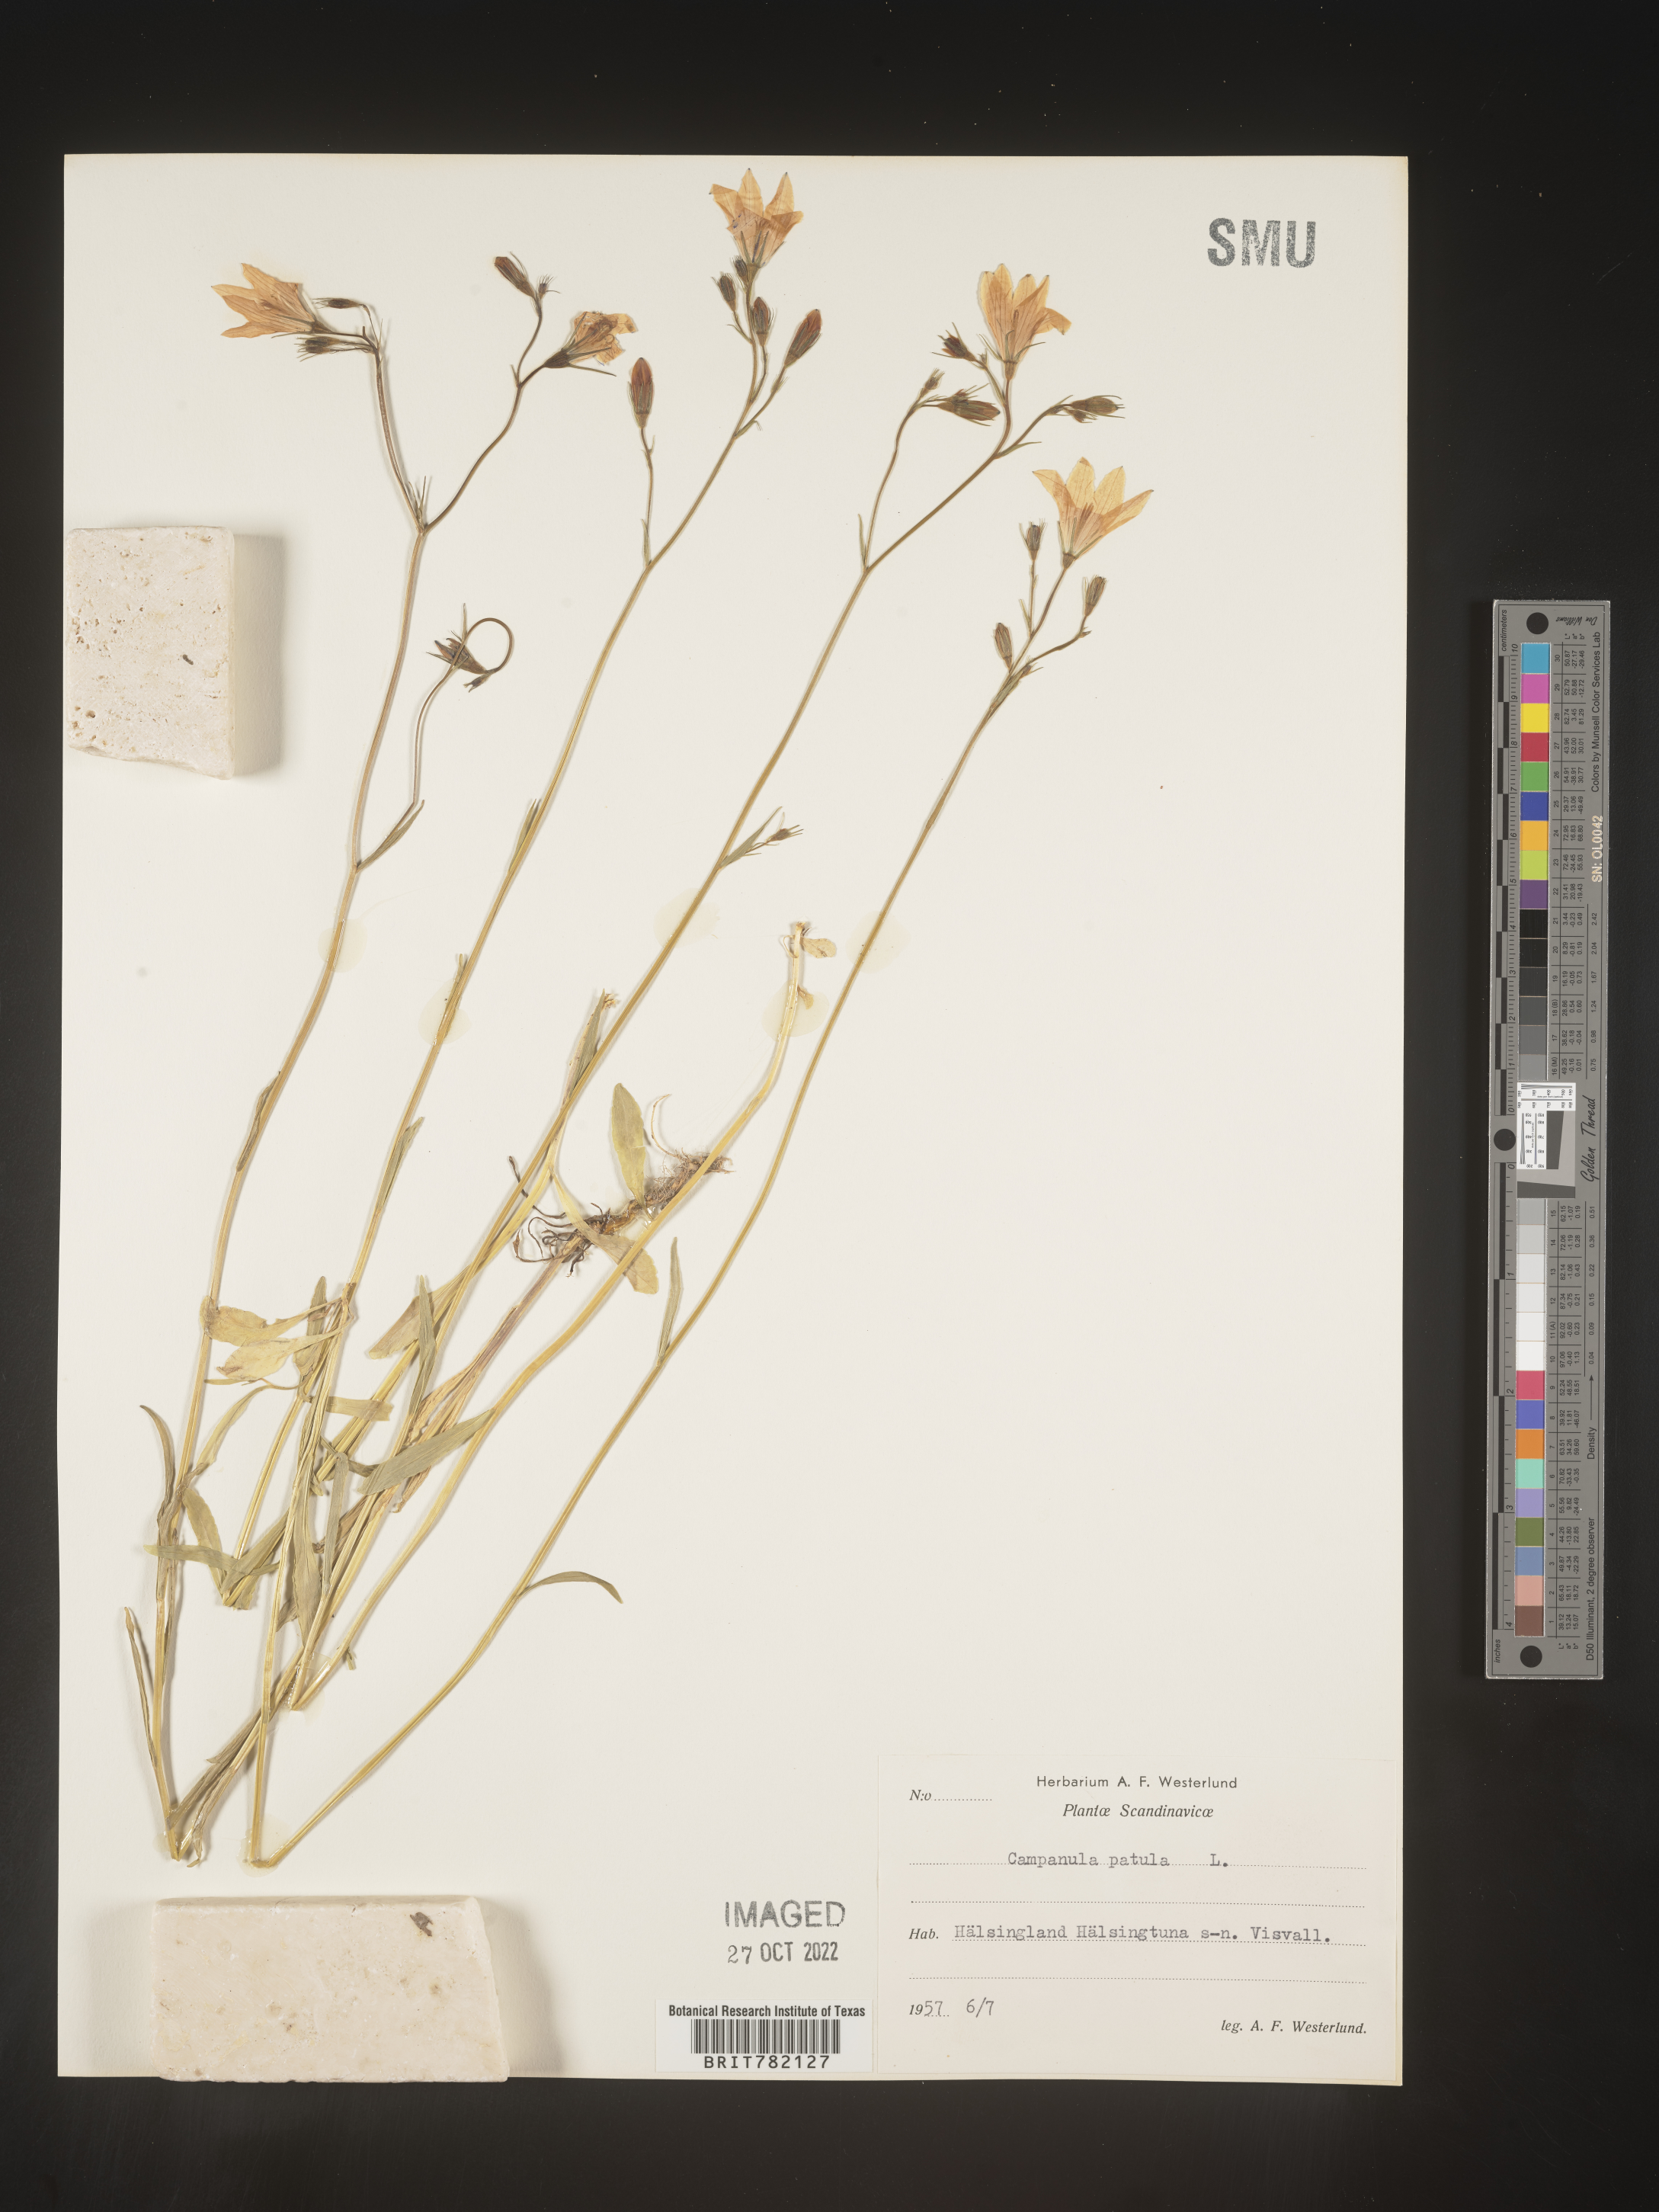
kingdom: Plantae
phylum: Tracheophyta
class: Magnoliopsida
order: Asterales
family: Campanulaceae
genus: Campanula
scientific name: Campanula
